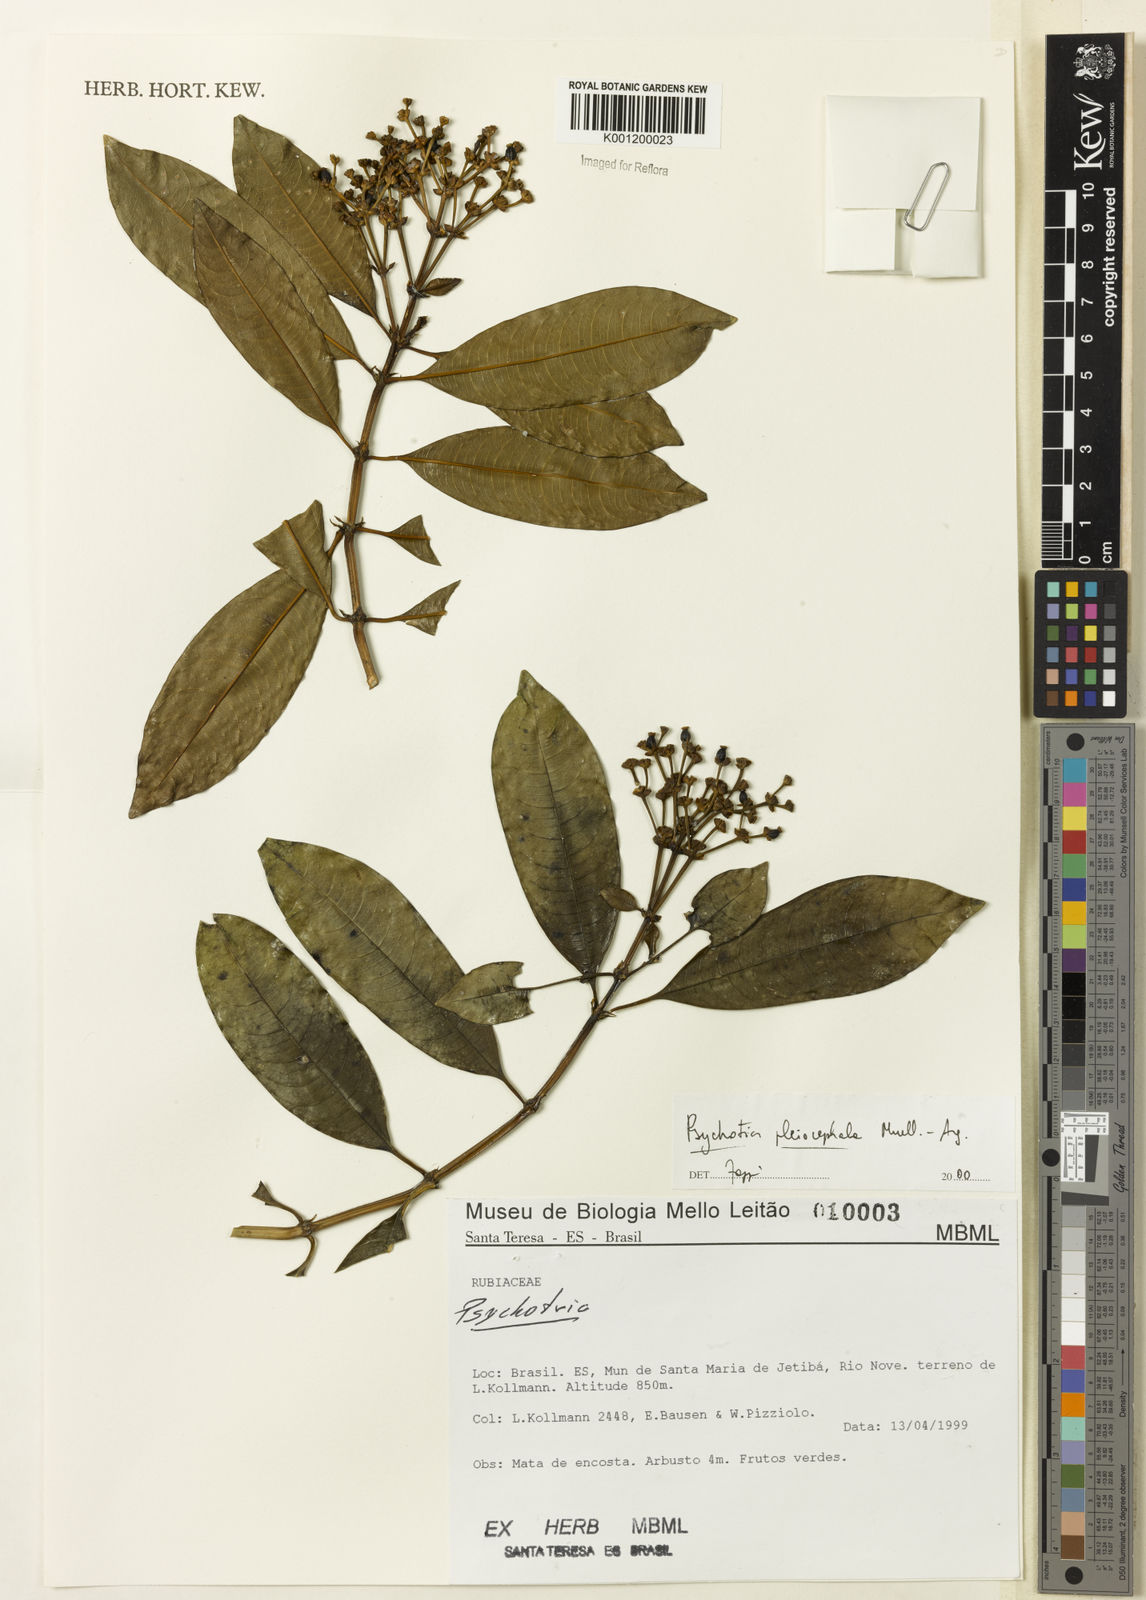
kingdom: Plantae
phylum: Tracheophyta
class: Magnoliopsida
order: Gentianales
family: Rubiaceae
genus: Psychotria
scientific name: Psychotria
